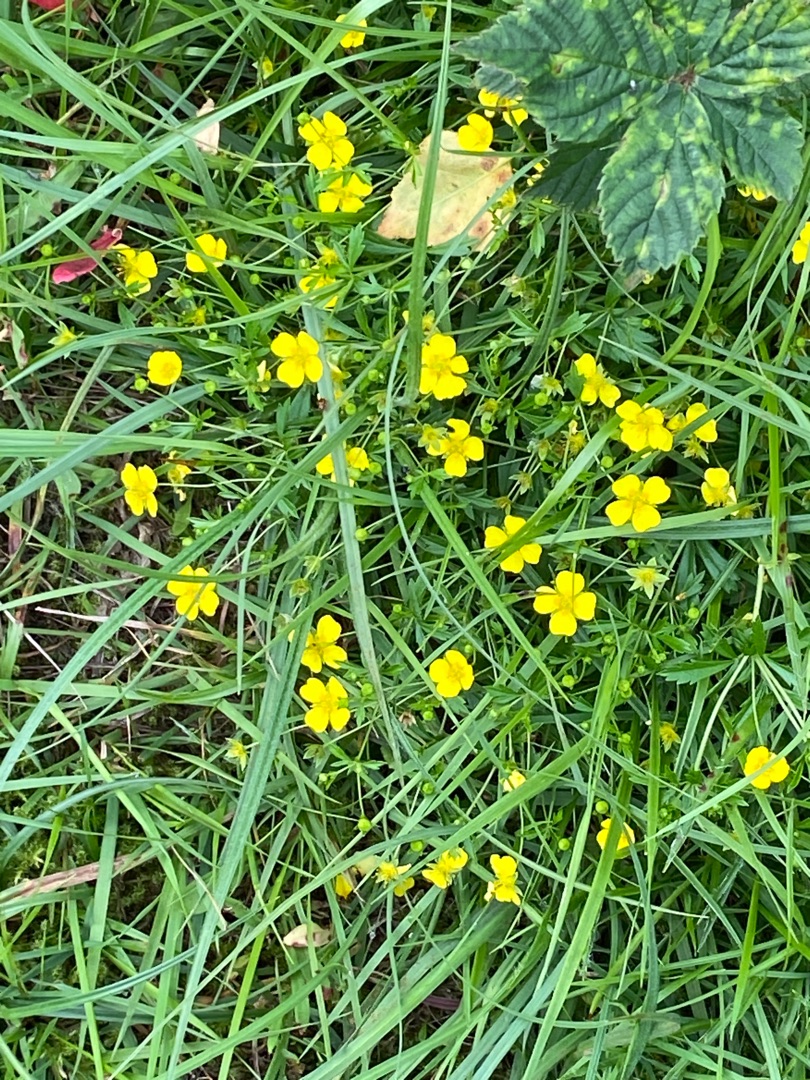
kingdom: Plantae
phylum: Tracheophyta
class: Magnoliopsida
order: Rosales
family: Rosaceae
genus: Potentilla
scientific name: Potentilla erecta
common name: Tormentil
